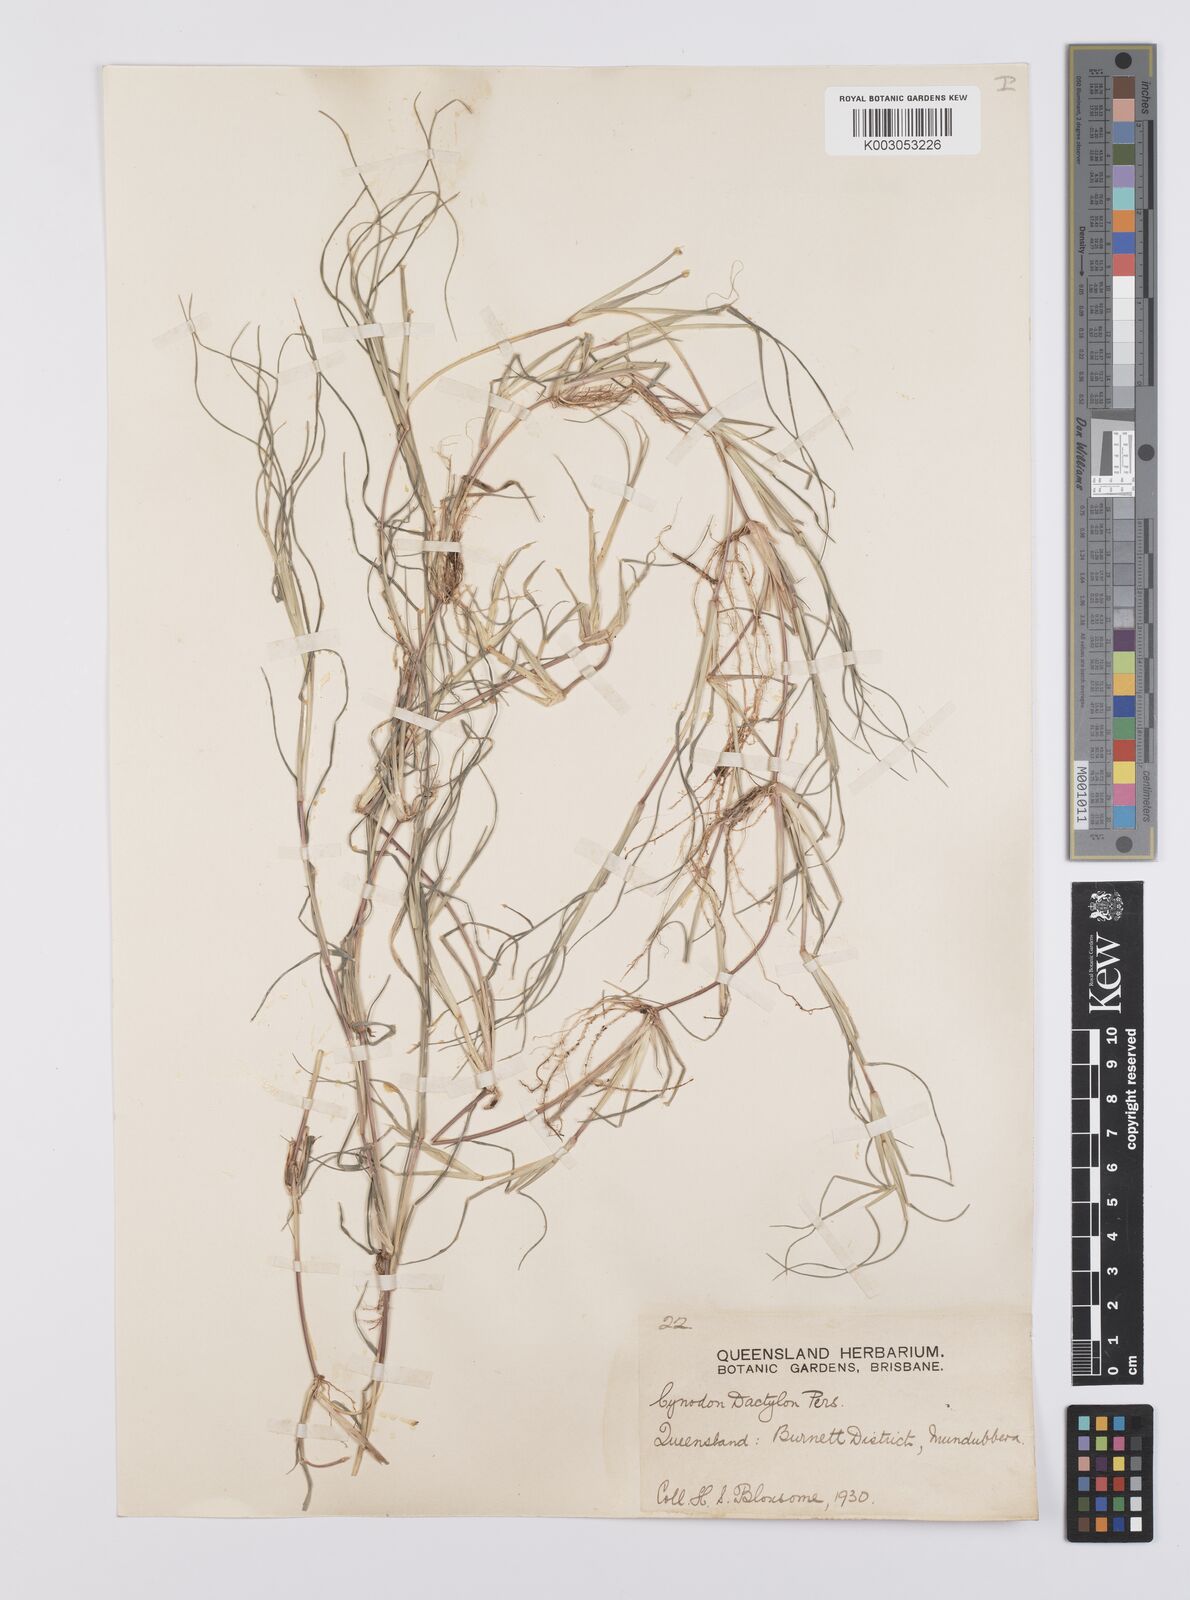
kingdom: Plantae
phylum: Tracheophyta
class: Liliopsida
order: Poales
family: Poaceae
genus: Cynodon
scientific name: Cynodon dactylon
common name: Bermuda grass
